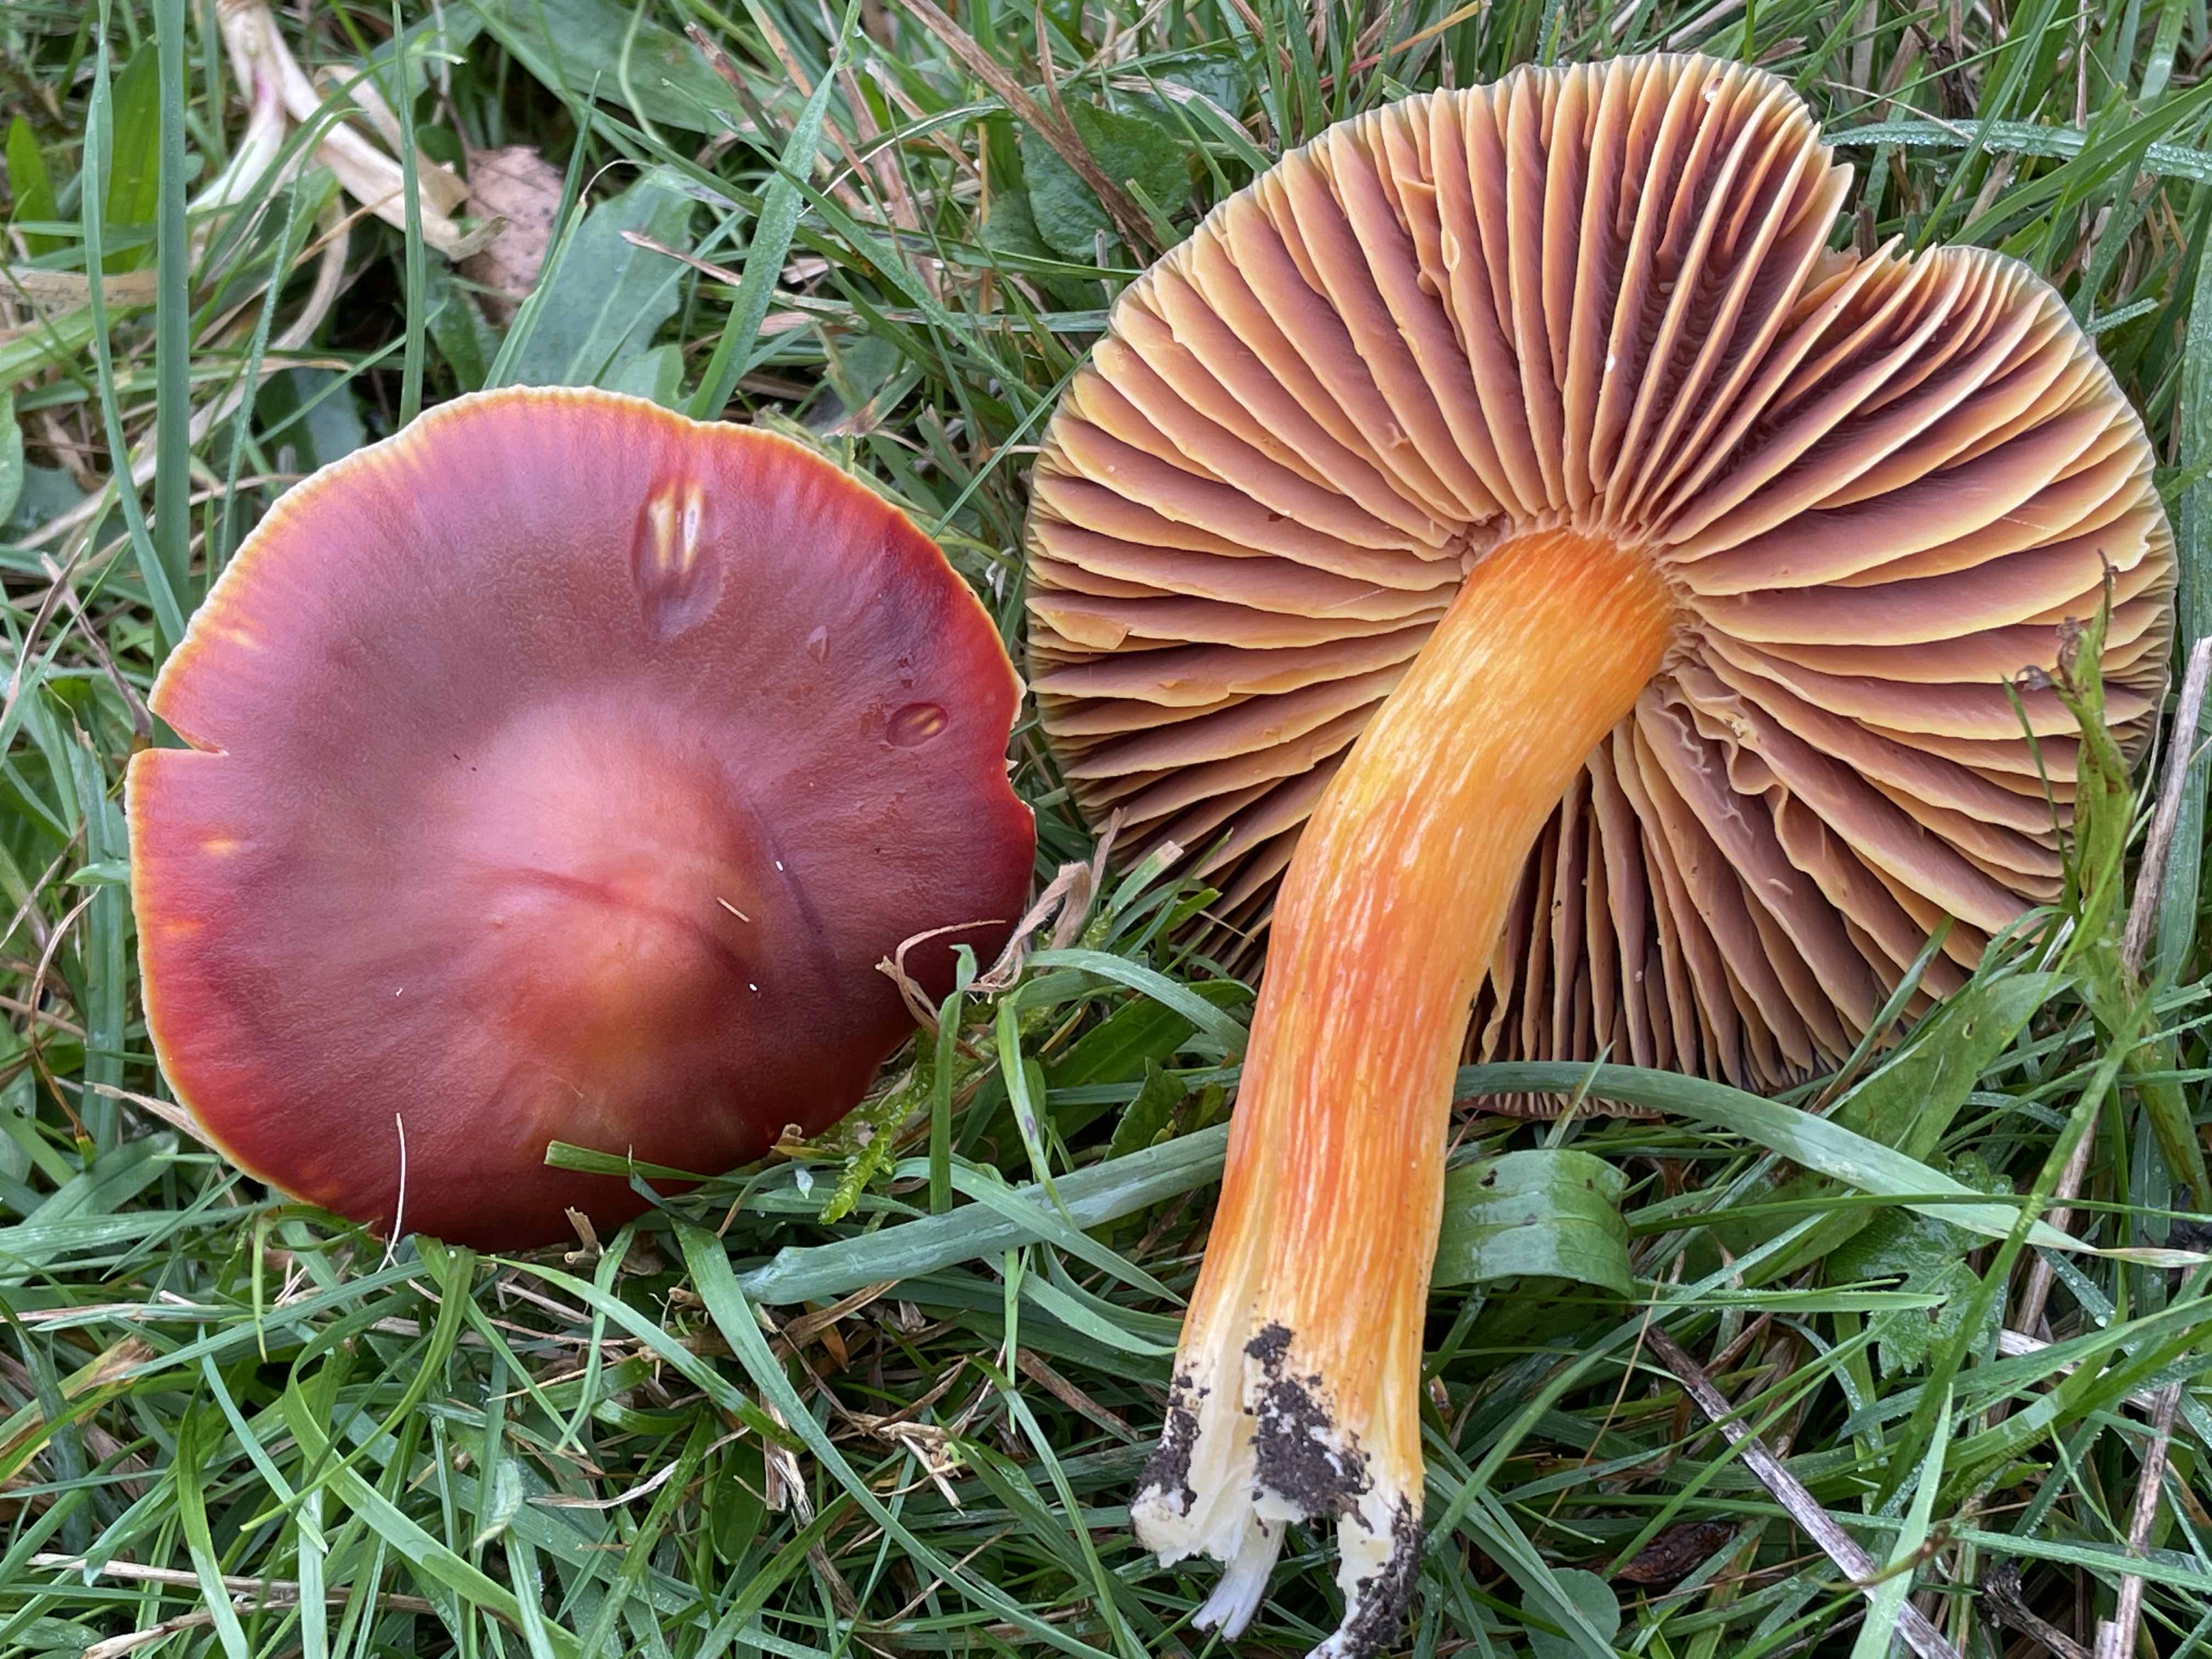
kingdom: Fungi
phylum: Basidiomycota
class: Agaricomycetes
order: Agaricales
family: Hygrophoraceae
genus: Hygrocybe
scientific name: Hygrocybe punicea
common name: skarlagen-vokshat
